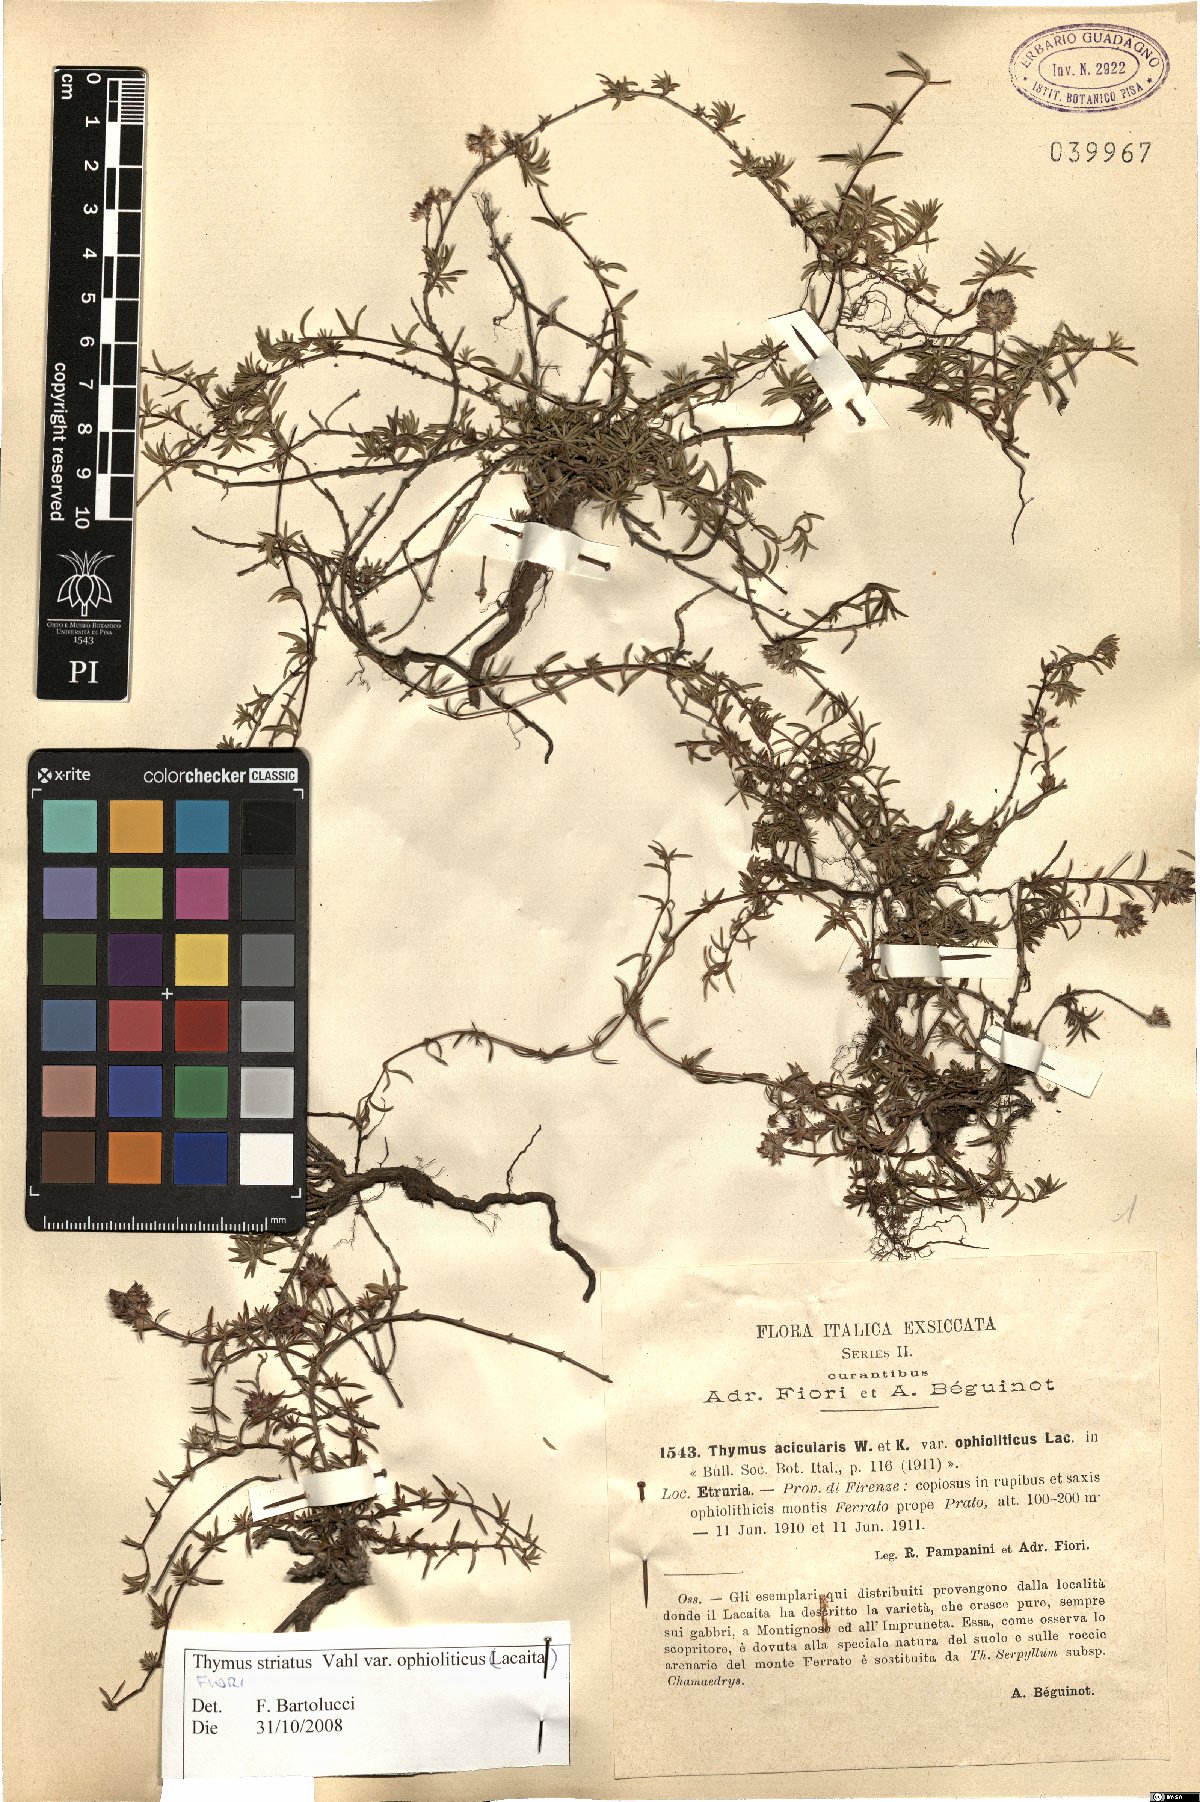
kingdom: Plantae
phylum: Tracheophyta
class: Magnoliopsida
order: Lamiales
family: Lamiaceae
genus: Thymus
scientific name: Thymus striatus
